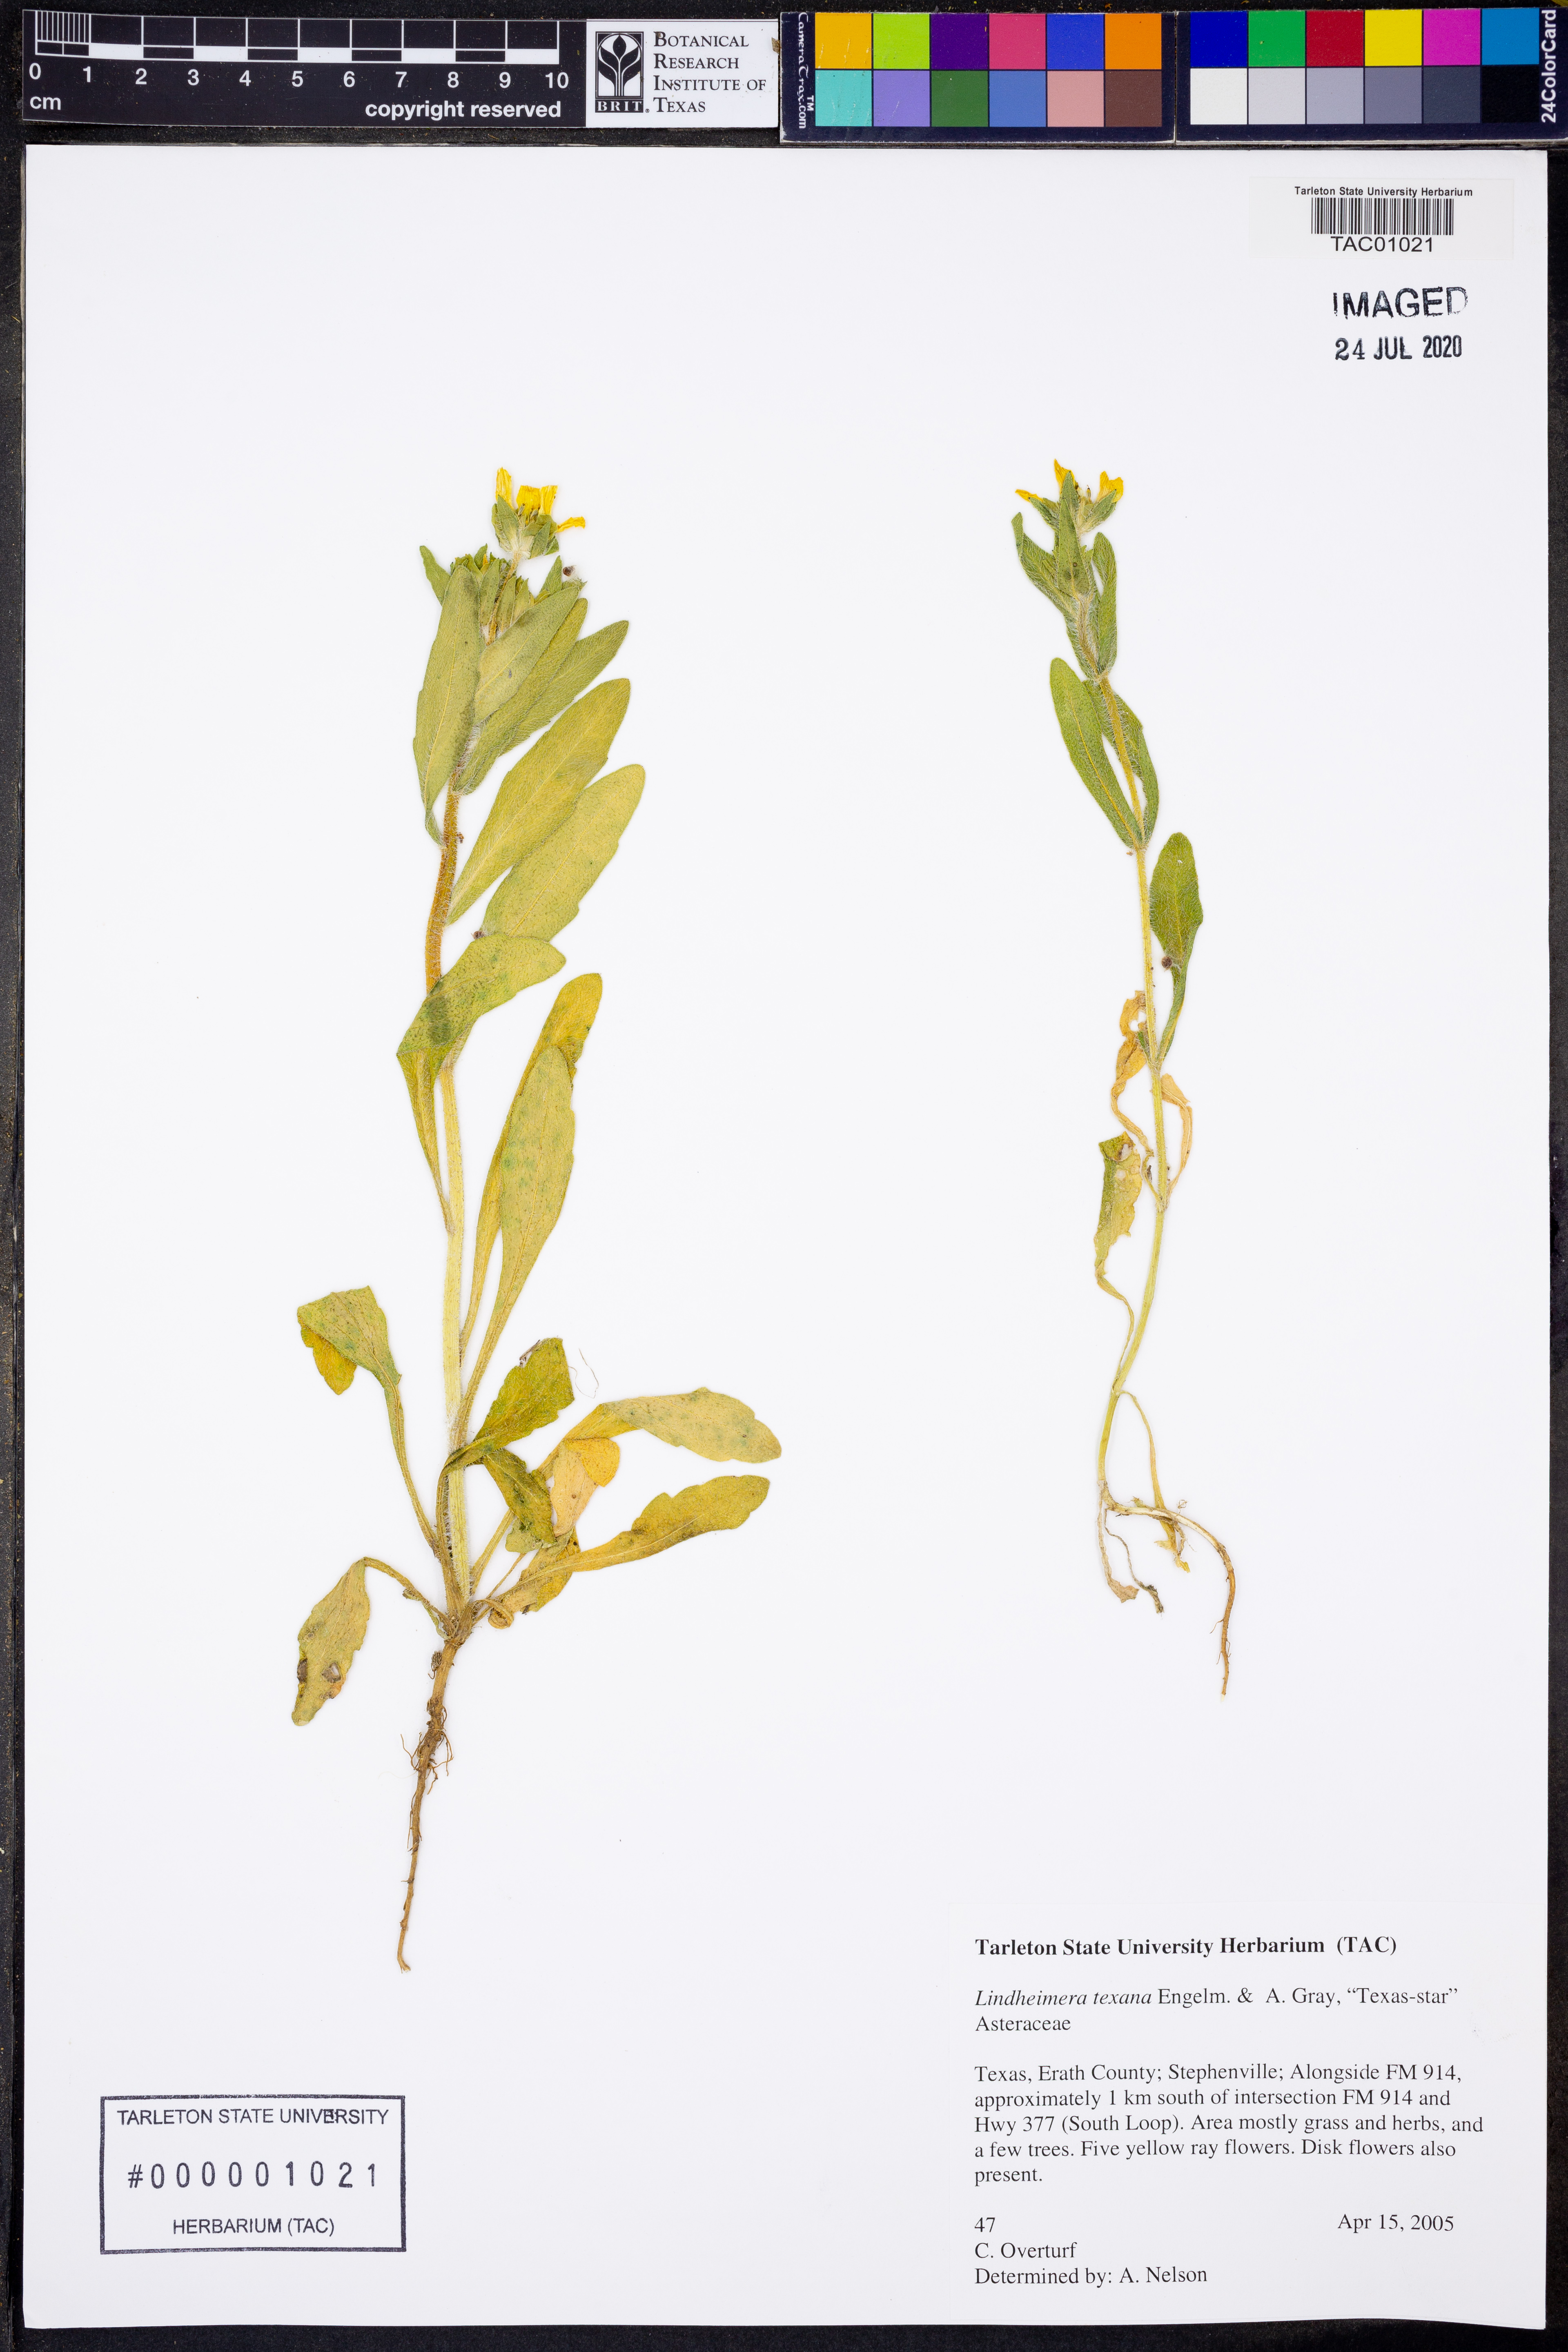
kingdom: Plantae
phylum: Tracheophyta
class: Magnoliopsida
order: Asterales
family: Asteraceae
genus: Lindheimera
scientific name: Lindheimera texana
